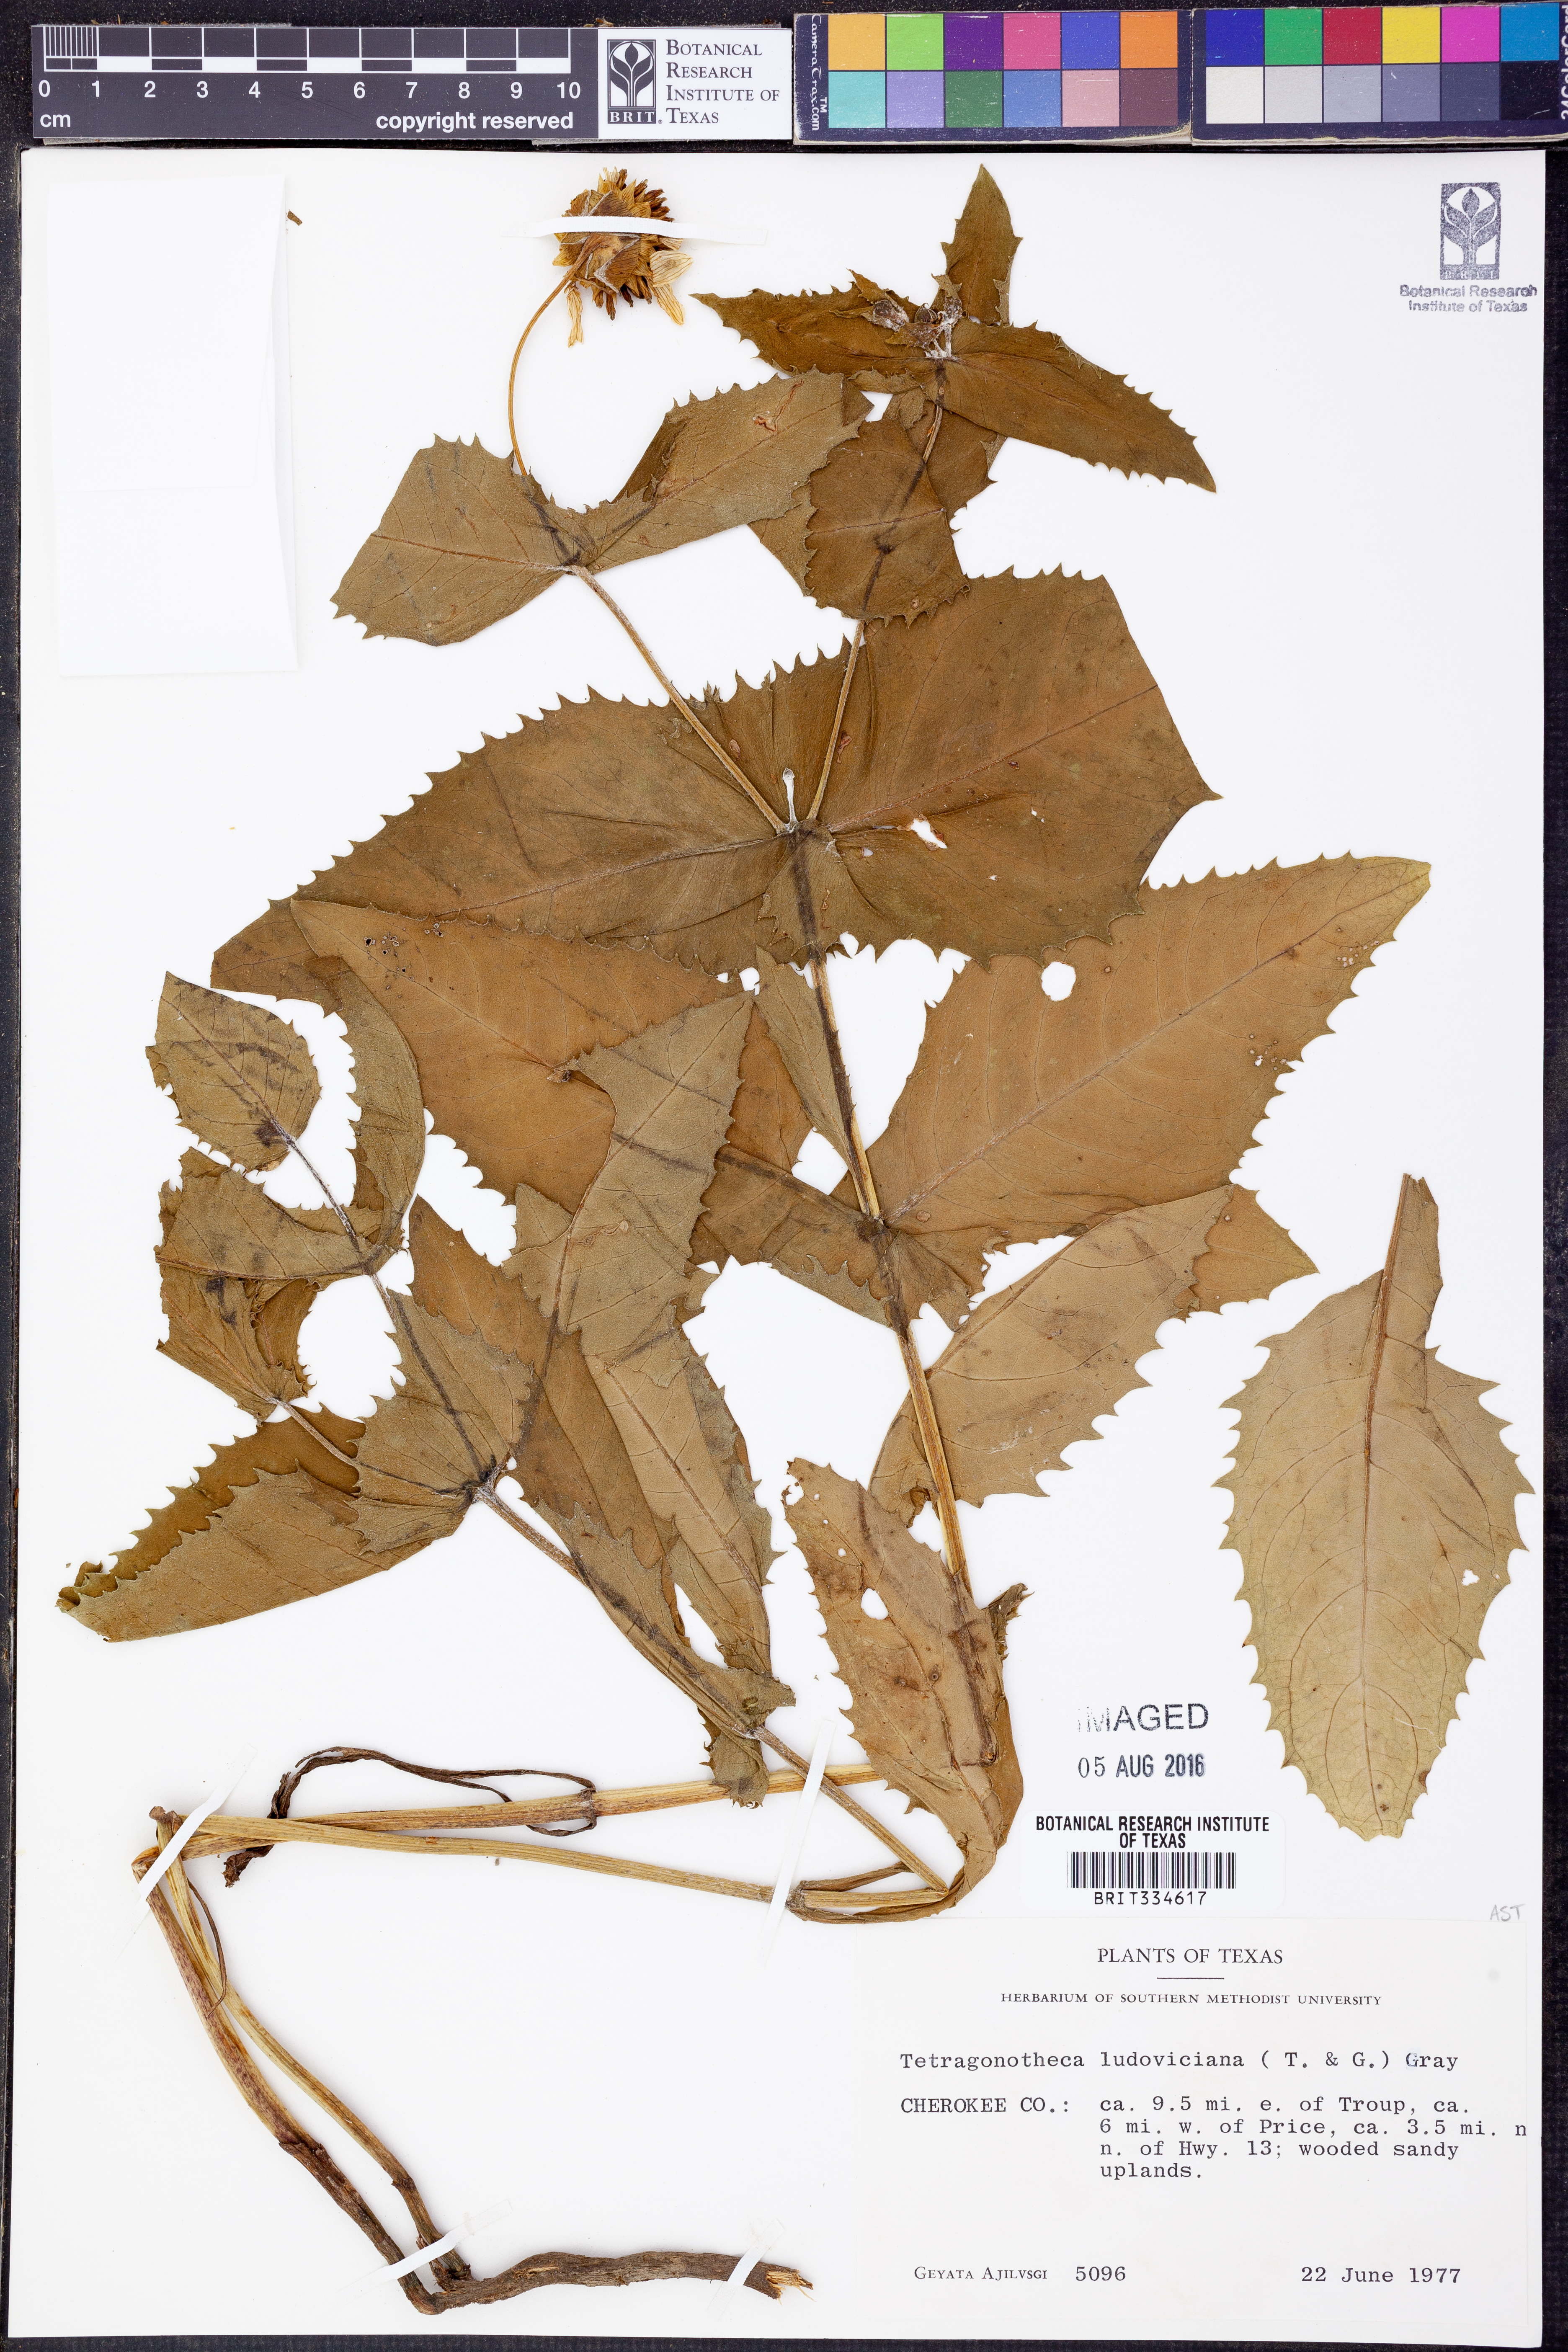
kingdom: Plantae
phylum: Tracheophyta
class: Magnoliopsida
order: Asterales
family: Asteraceae
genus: Tetragonotheca
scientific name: Tetragonotheca ludoviciana
